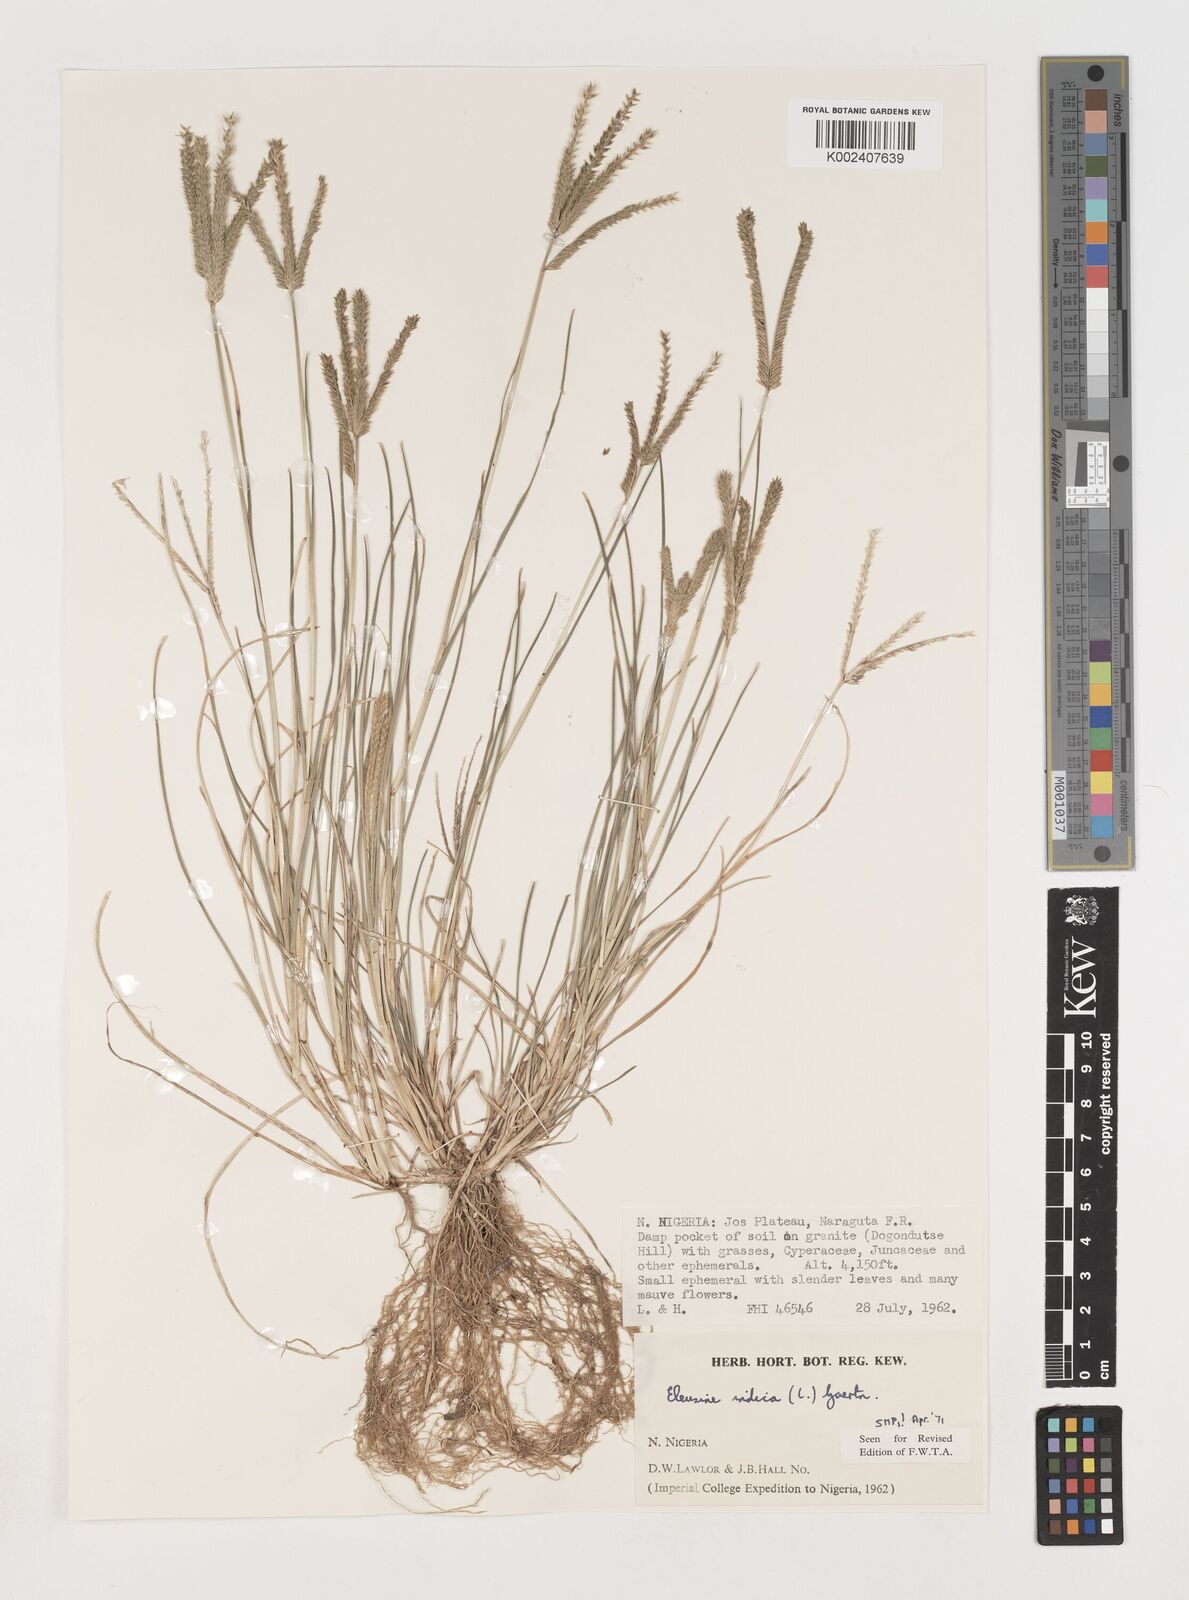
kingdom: Plantae
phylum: Tracheophyta
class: Liliopsida
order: Poales
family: Poaceae
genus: Eleusine
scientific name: Eleusine indica
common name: Yard-grass
